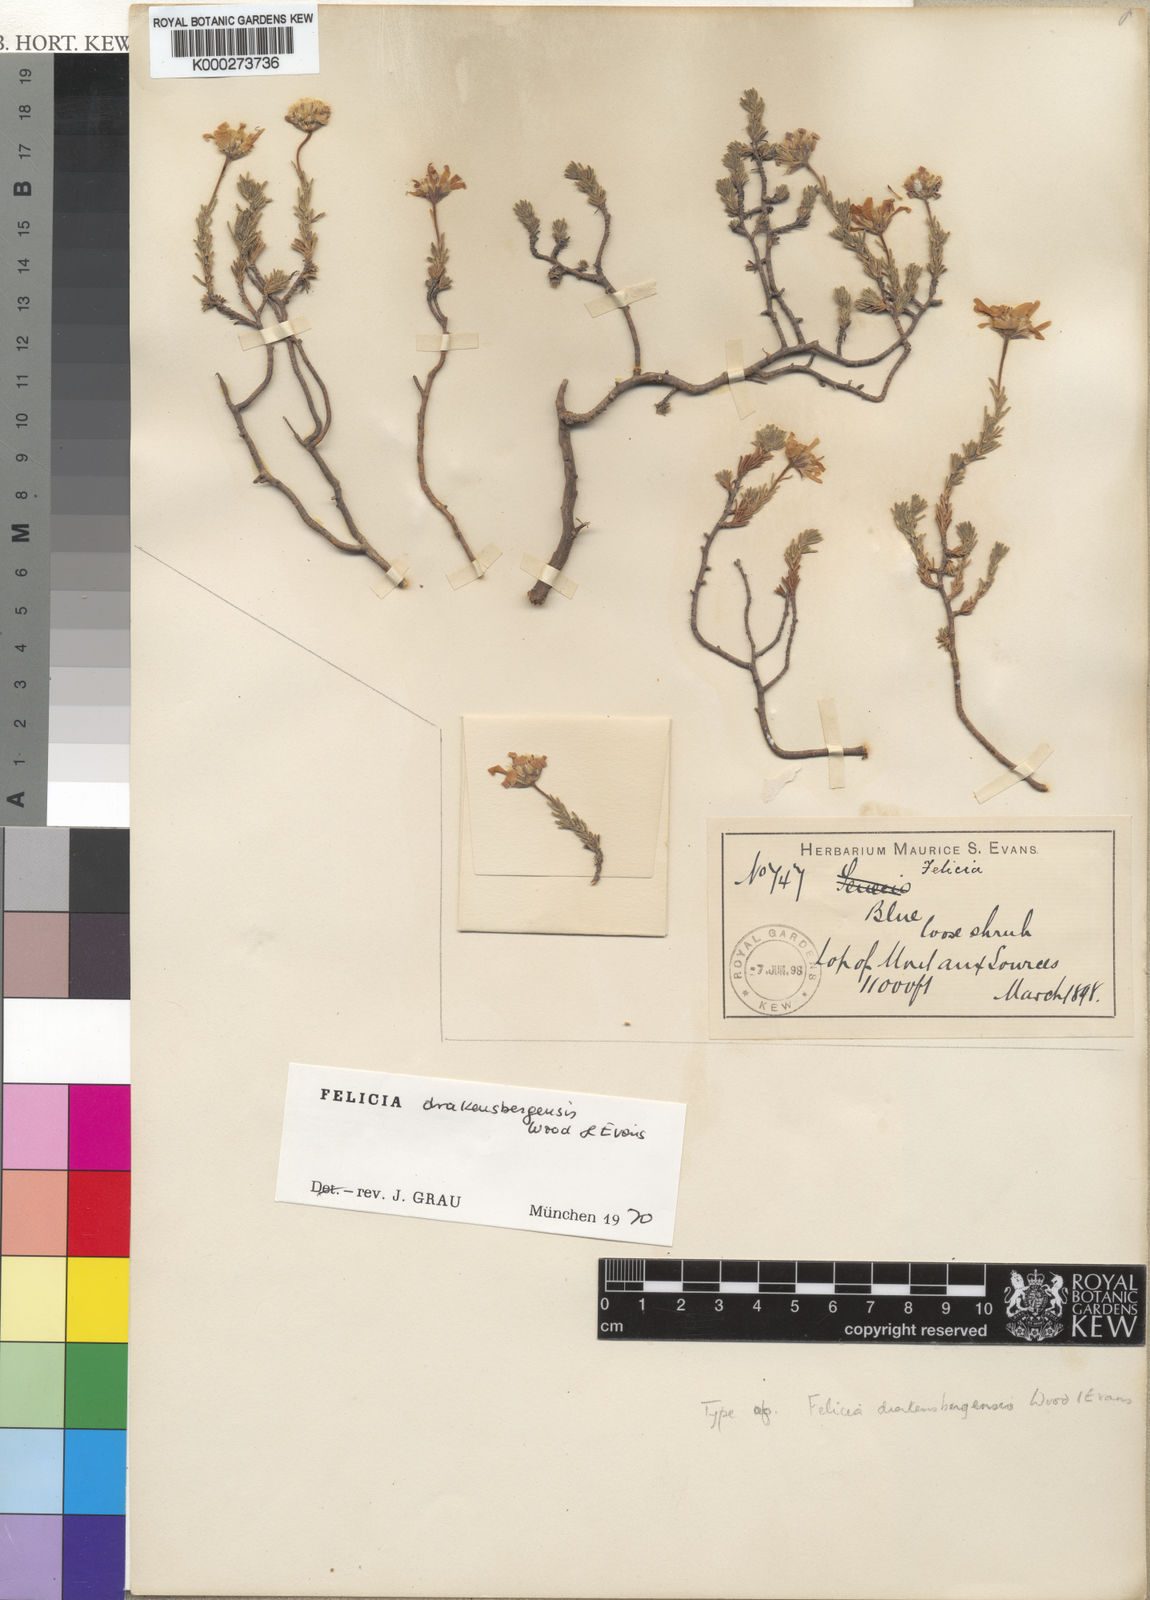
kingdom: Plantae
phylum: Tracheophyta
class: Magnoliopsida
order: Asterales
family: Asteraceae
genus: Felicia
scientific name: Felicia drakensbergensis
